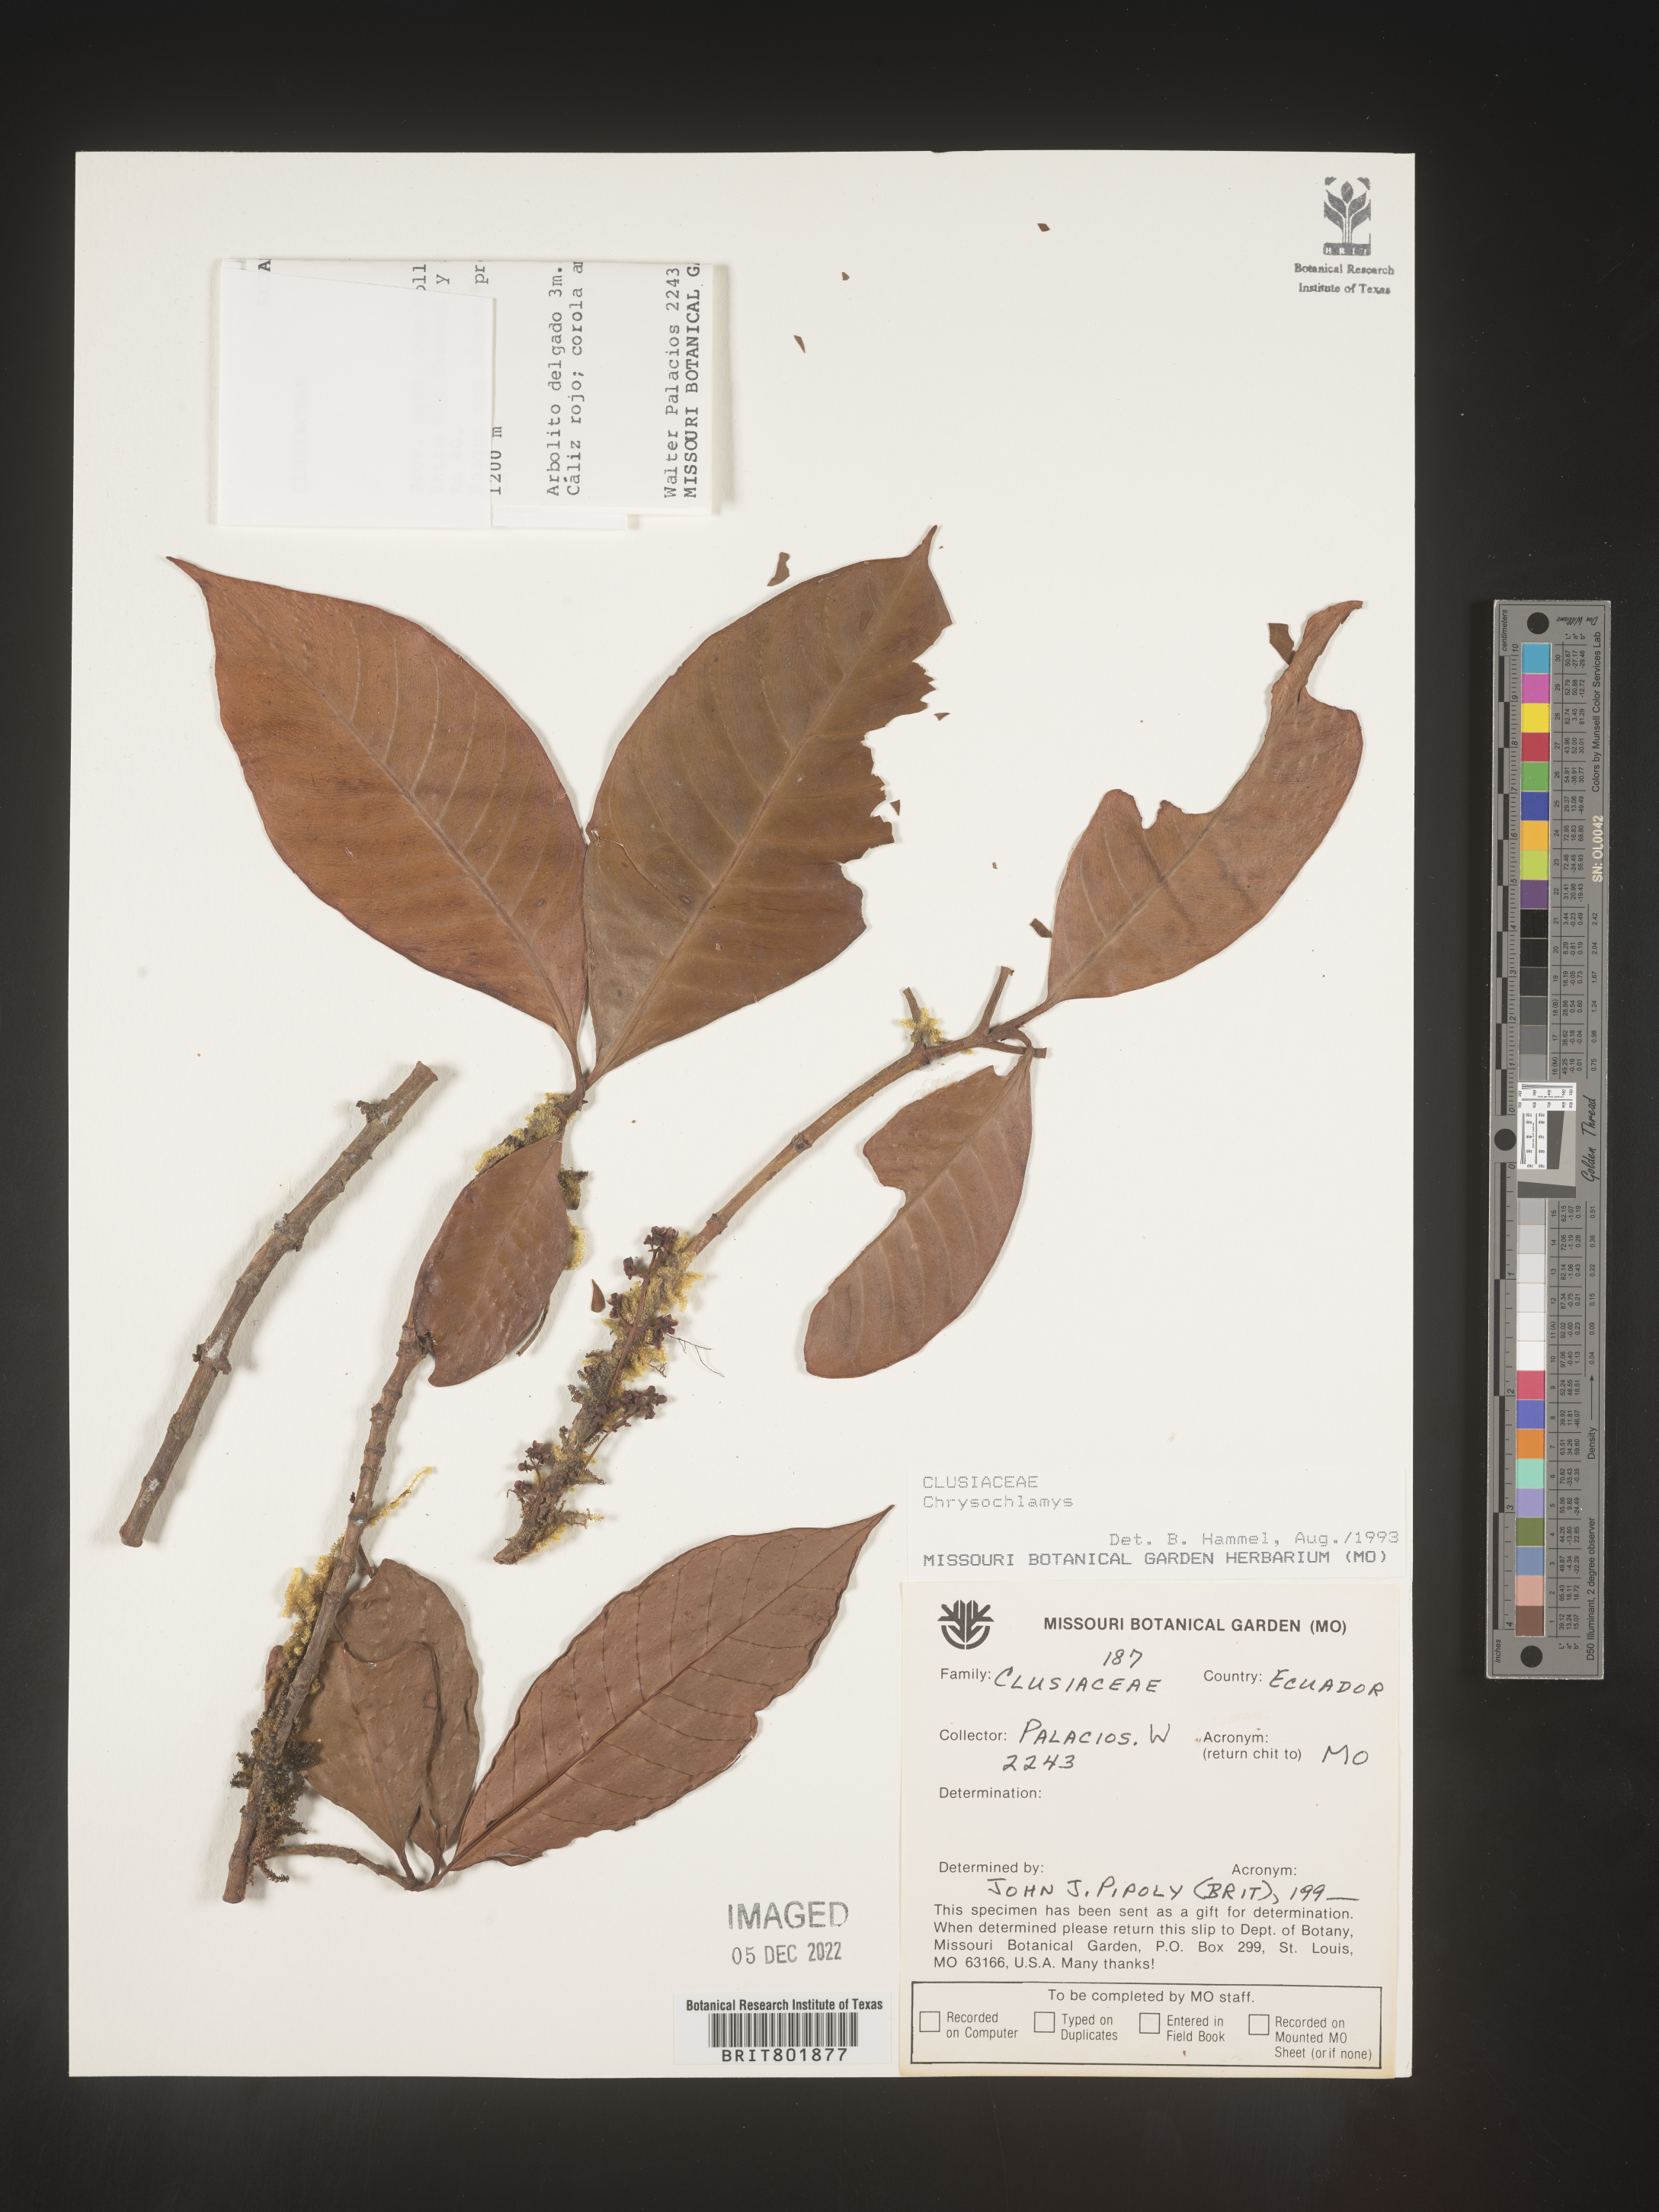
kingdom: Plantae
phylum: Tracheophyta
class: Magnoliopsida
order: Malpighiales
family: Clusiaceae
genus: Chrysochlamys
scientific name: Chrysochlamys
